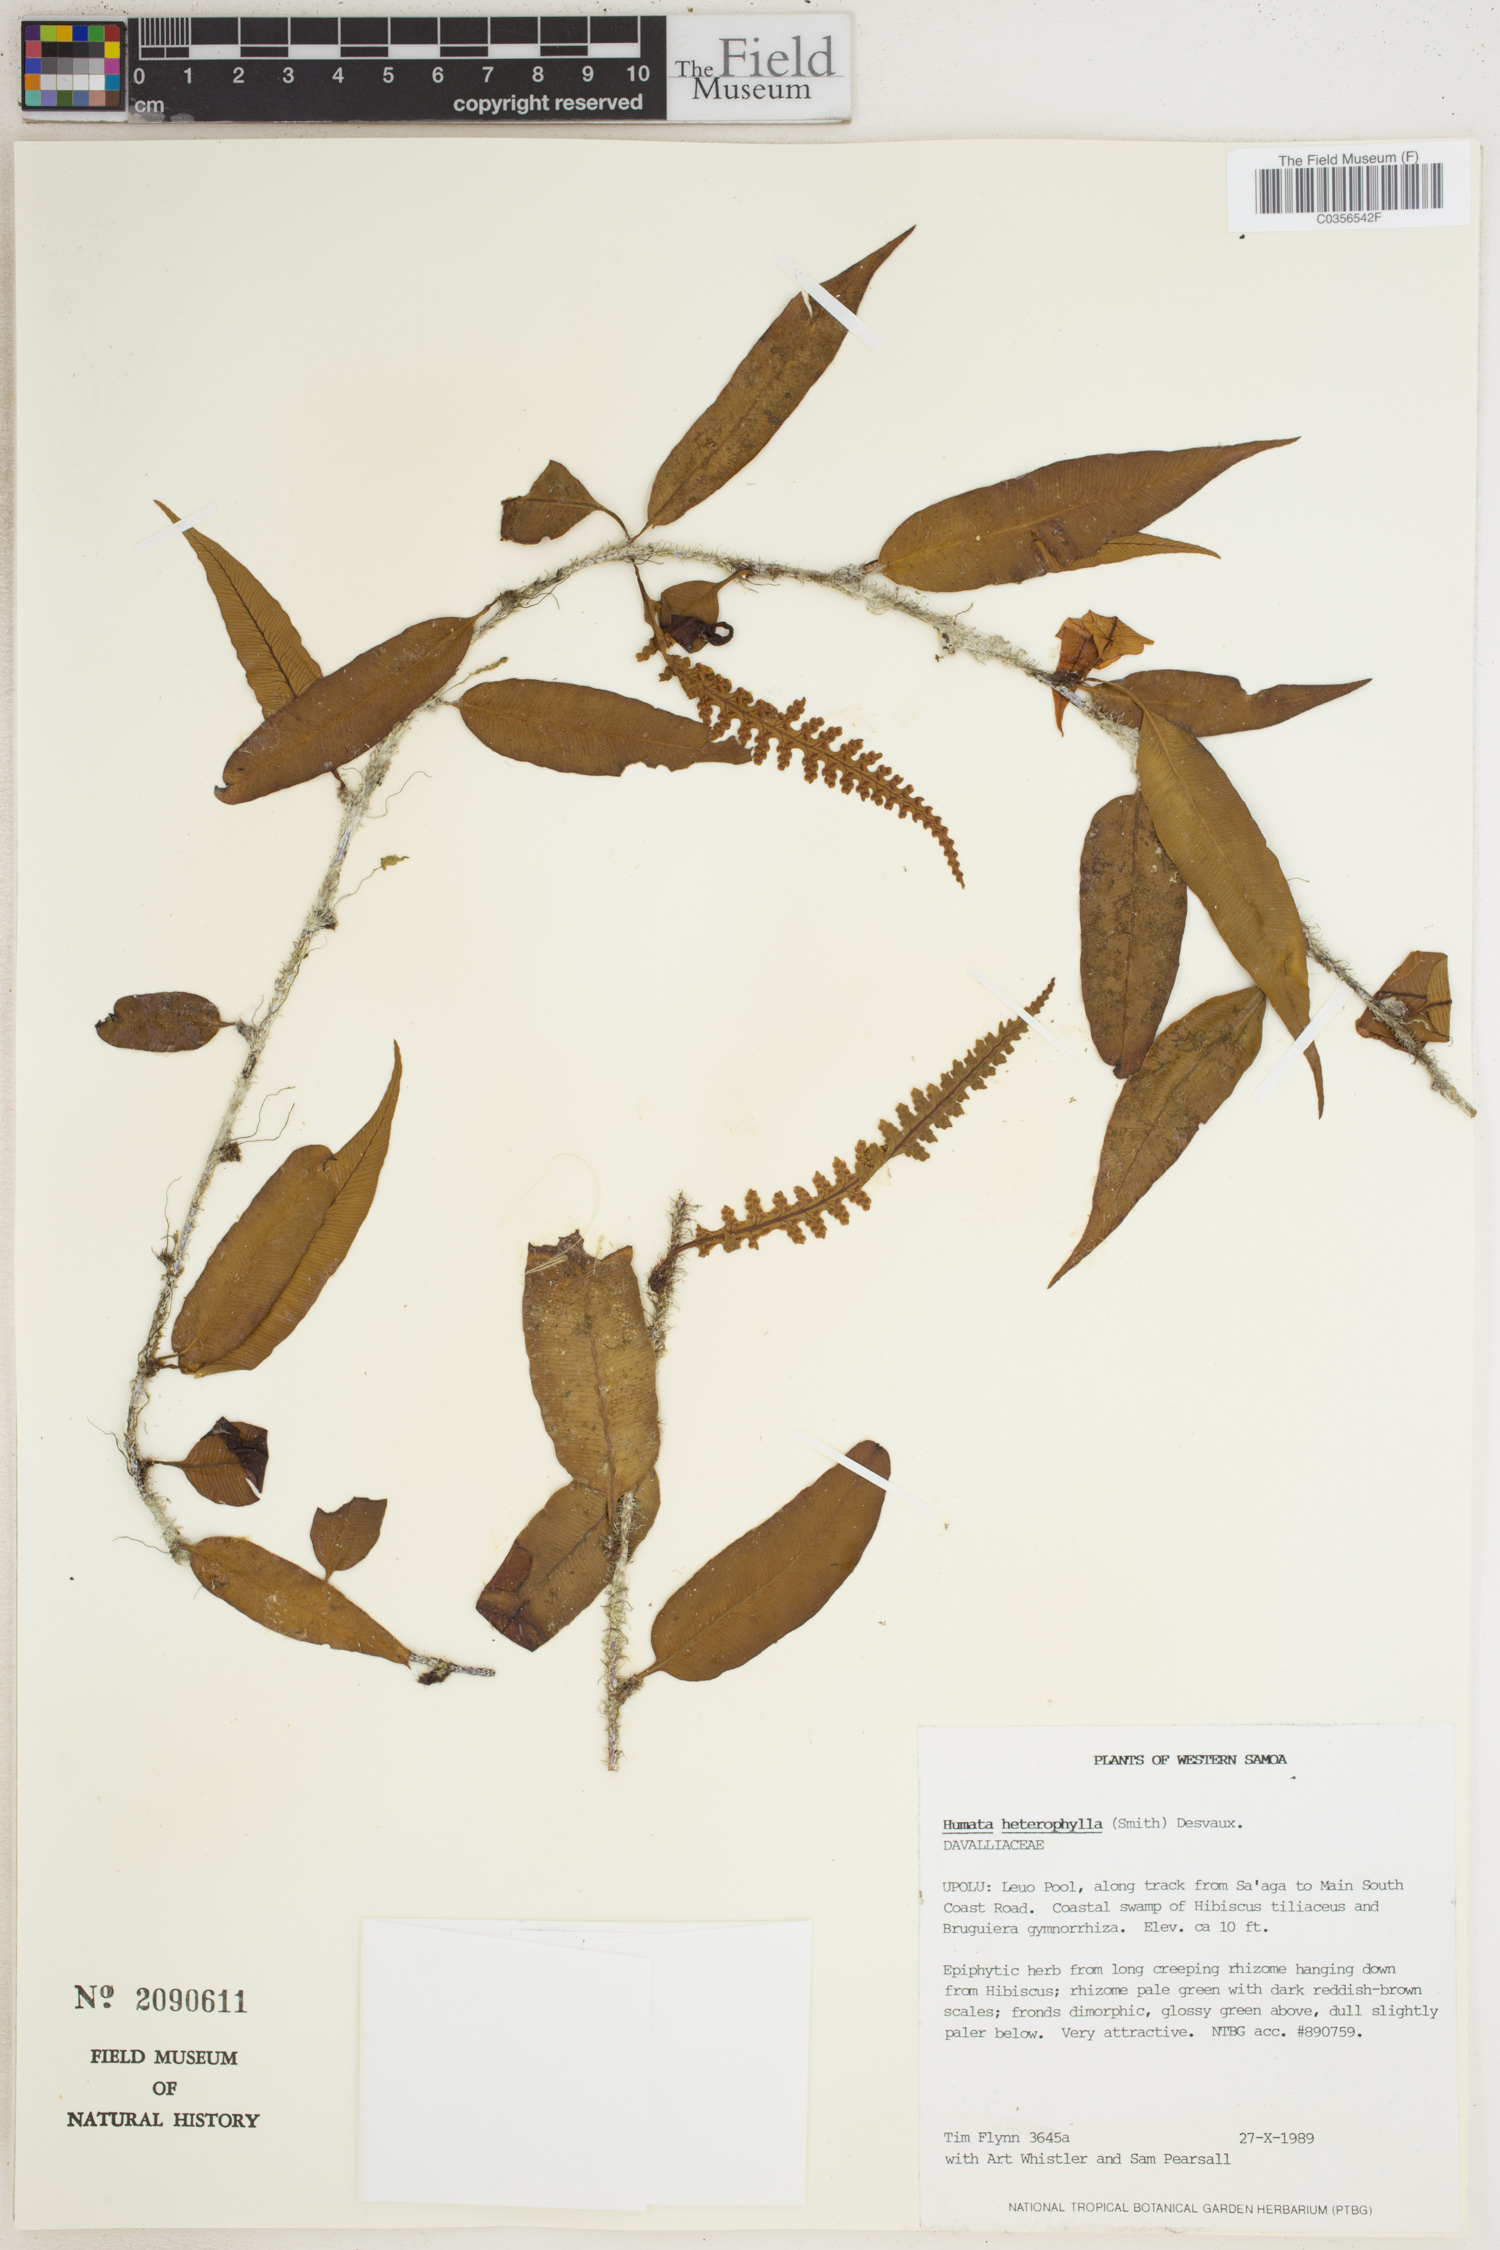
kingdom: Plantae
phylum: Tracheophyta
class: Polypodiopsida
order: Polypodiales
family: Davalliaceae
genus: Davallia
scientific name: Davallia heterophylla
